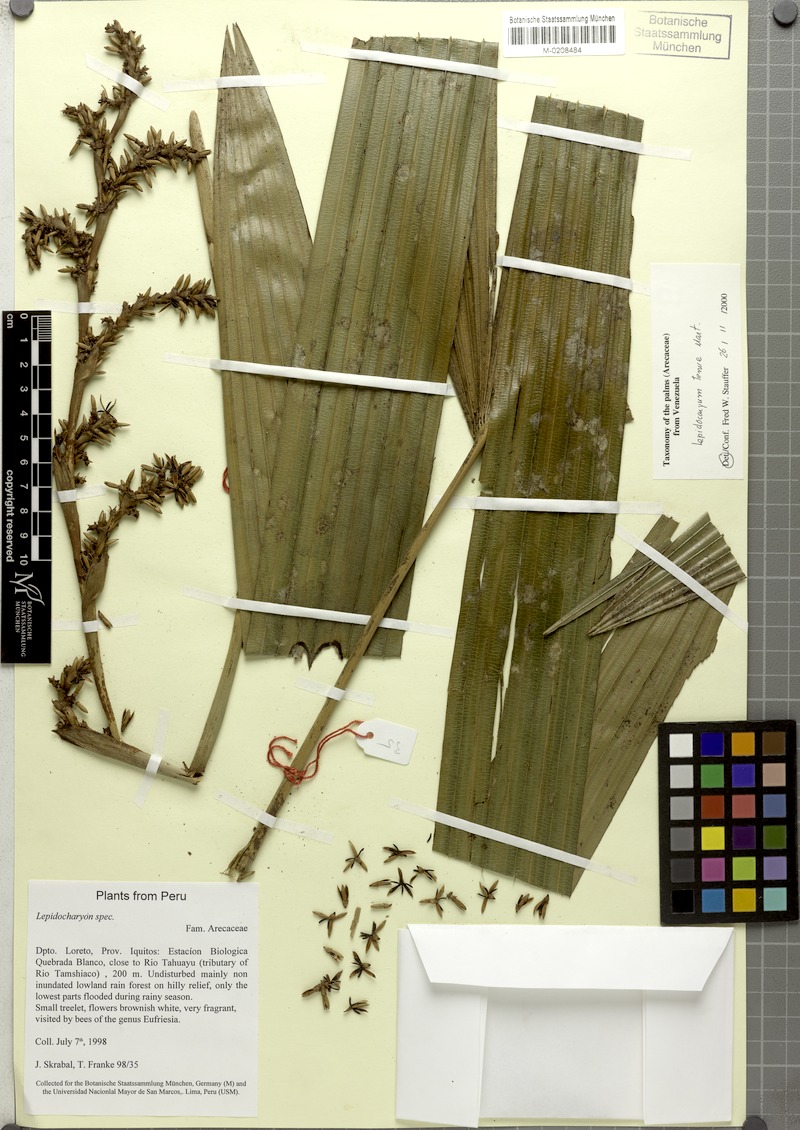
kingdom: Plantae
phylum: Tracheophyta
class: Liliopsida
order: Arecales
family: Arecaceae
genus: Lepidocaryum
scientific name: Lepidocaryum tenue
